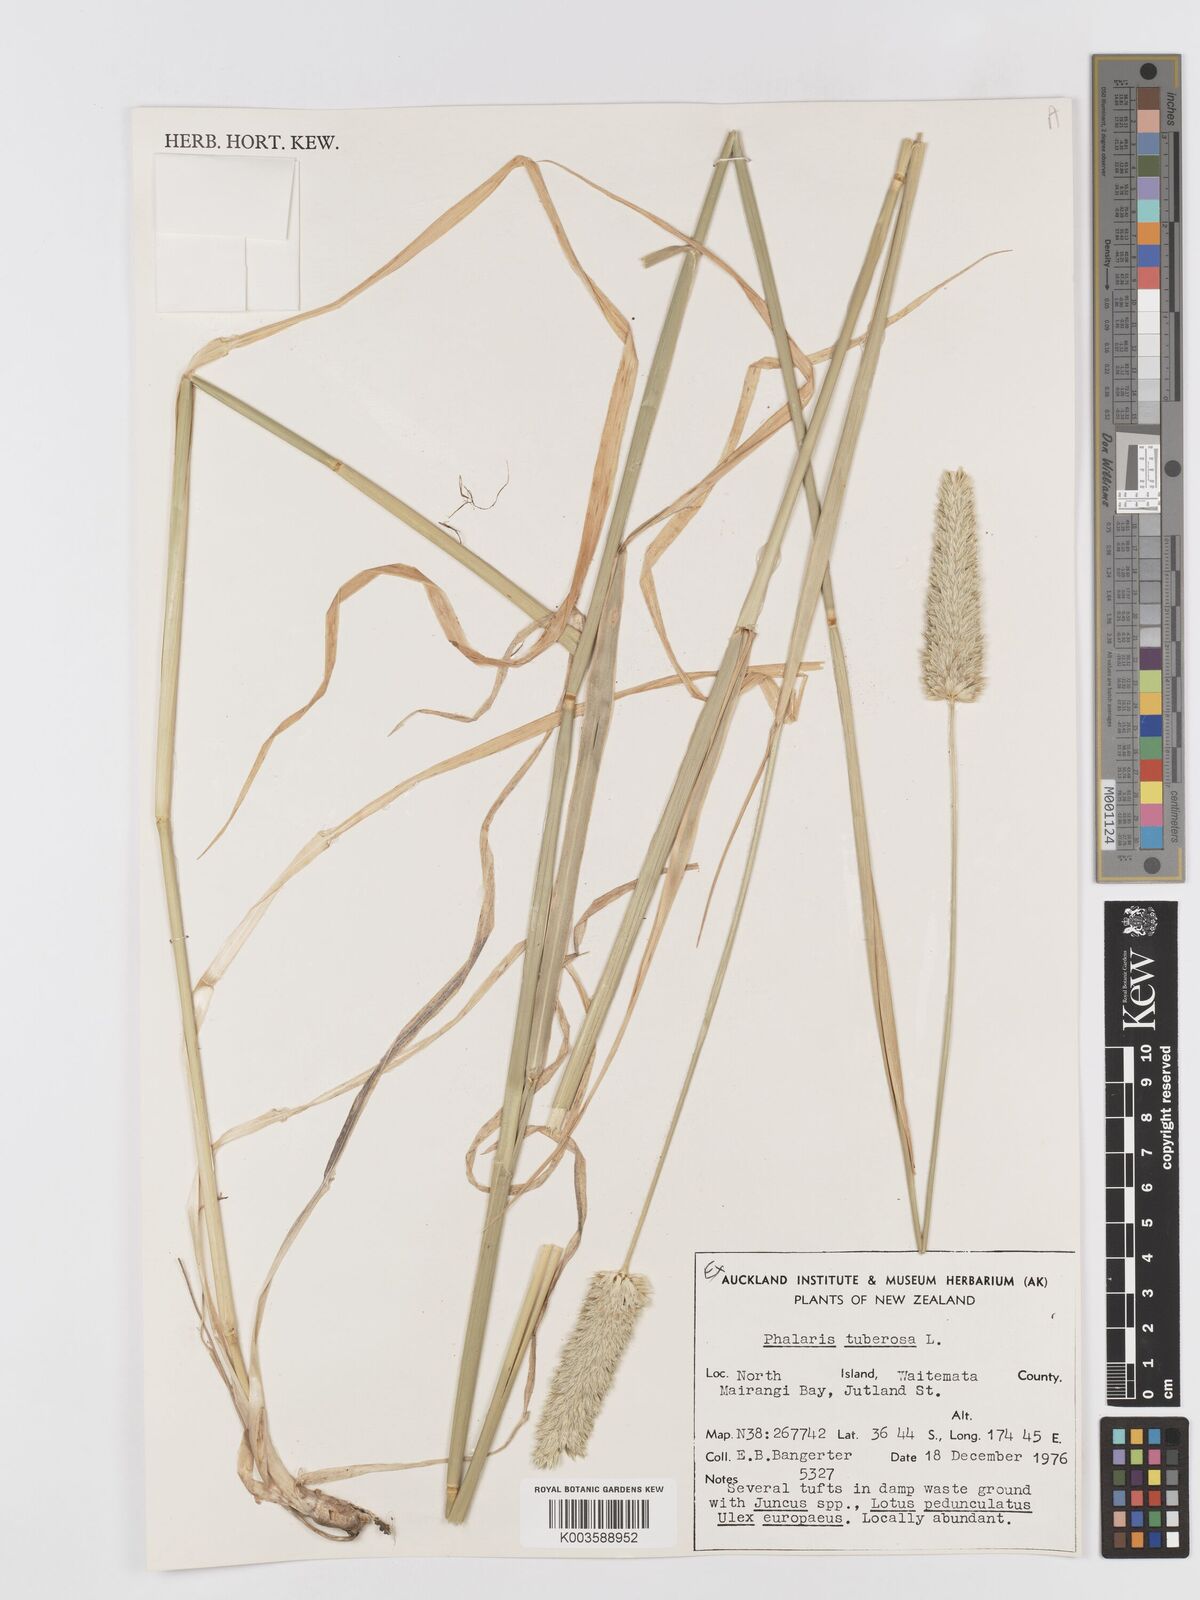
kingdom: Plantae
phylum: Tracheophyta
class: Liliopsida
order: Poales
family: Poaceae
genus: Phalaris
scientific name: Phalaris aquatica
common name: Bulbous canary-grass
